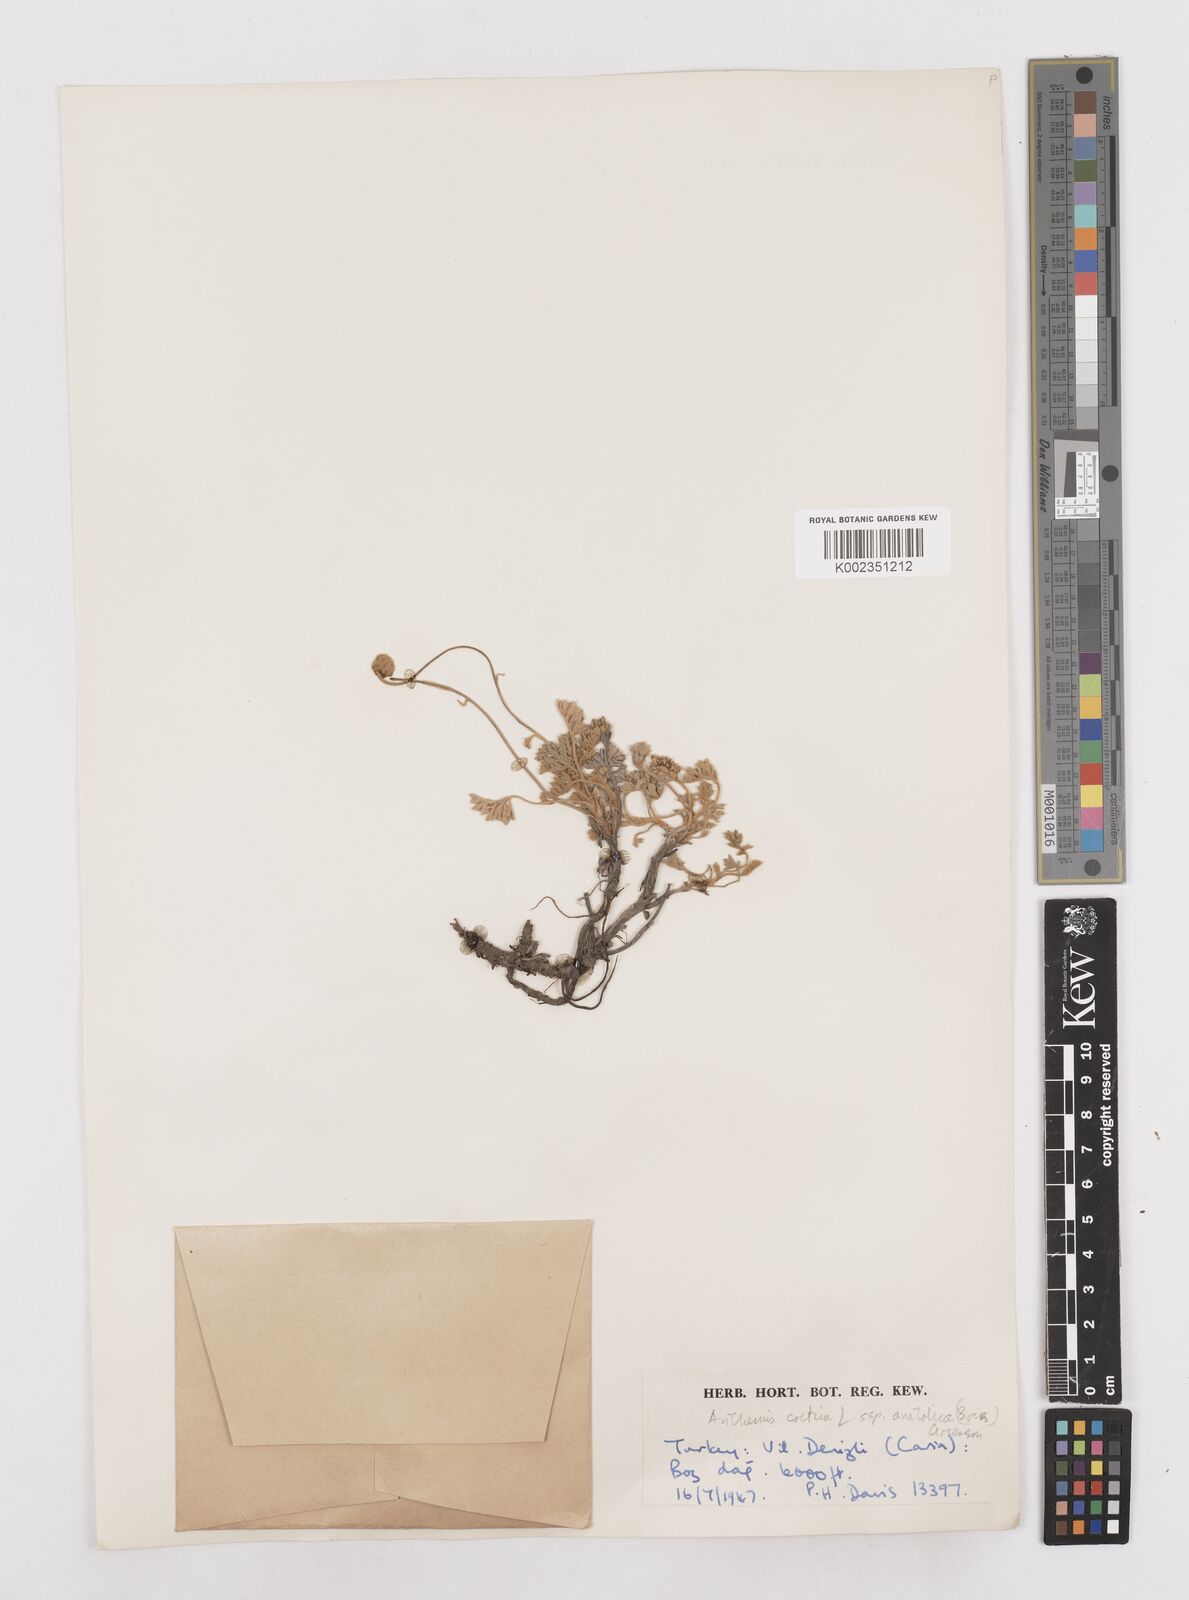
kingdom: Plantae
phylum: Tracheophyta
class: Magnoliopsida
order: Asterales
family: Asteraceae
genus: Anthemis
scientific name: Anthemis cretica
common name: Mountain dog-daisy
